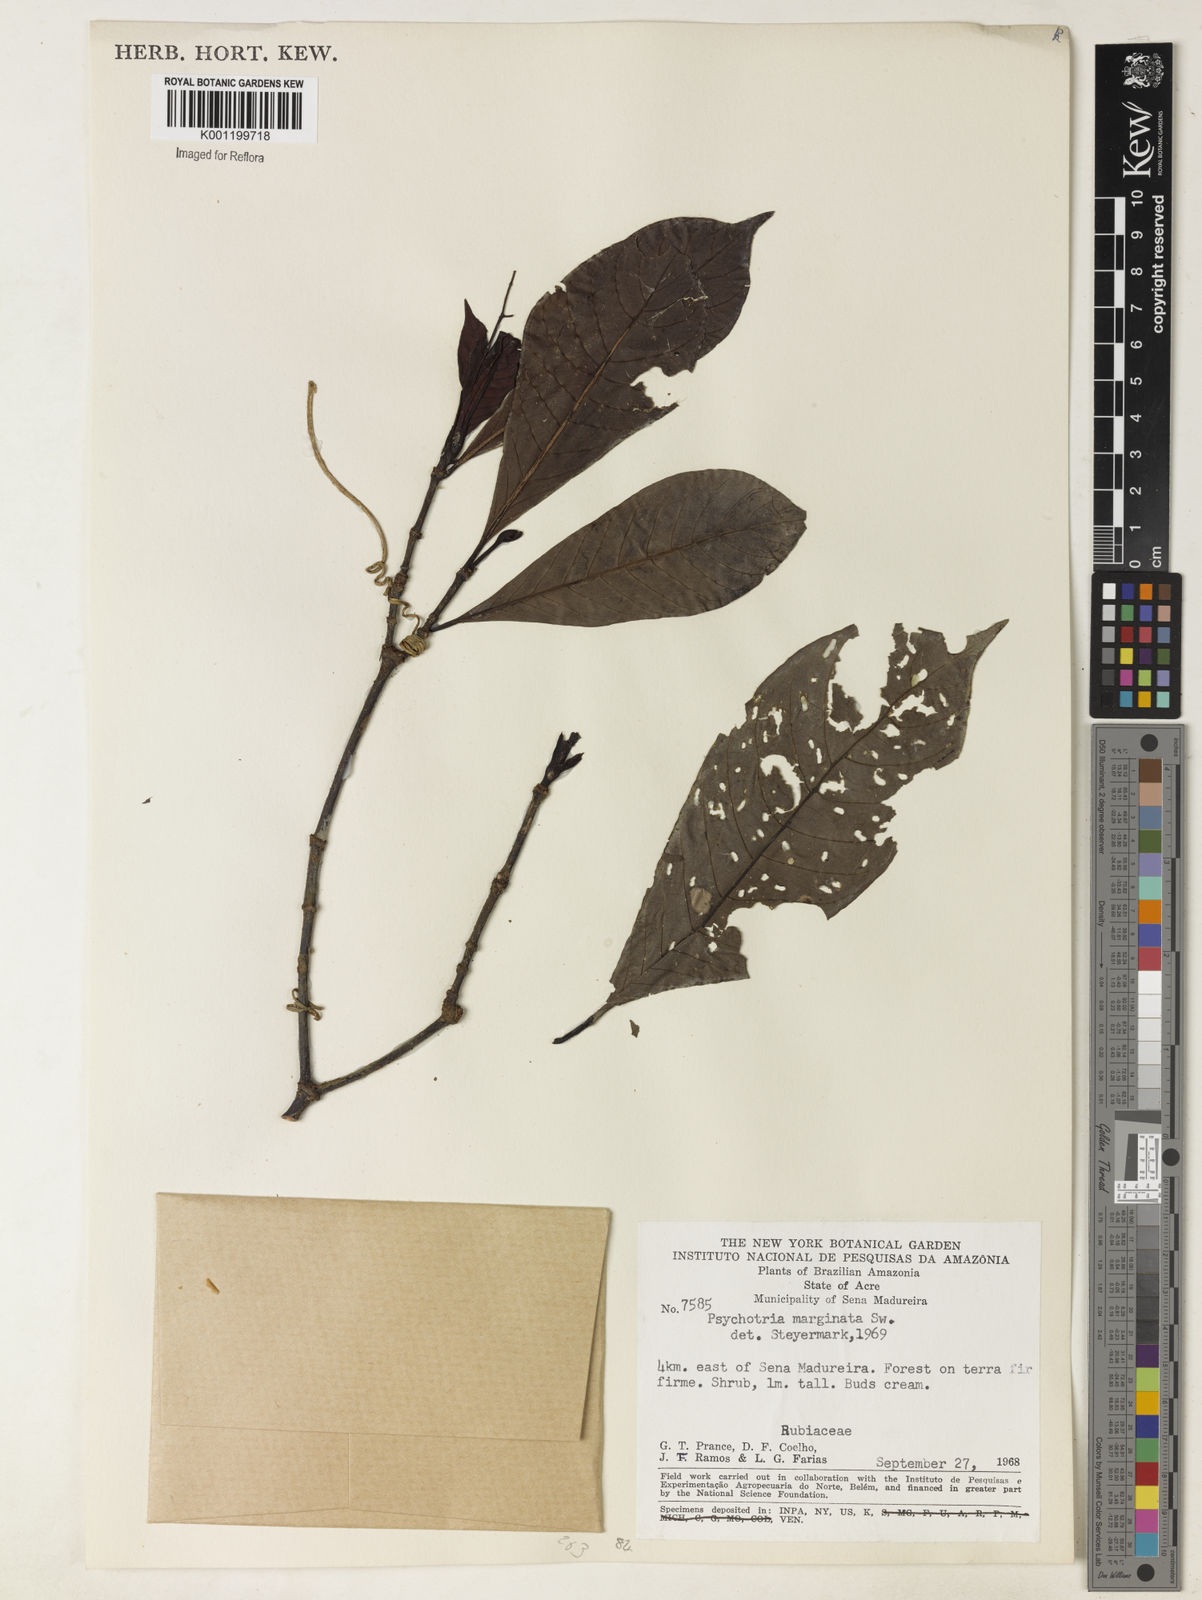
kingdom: Plantae
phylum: Tracheophyta
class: Magnoliopsida
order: Gentianales
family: Rubiaceae
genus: Psychotria
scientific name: Psychotria marginata
